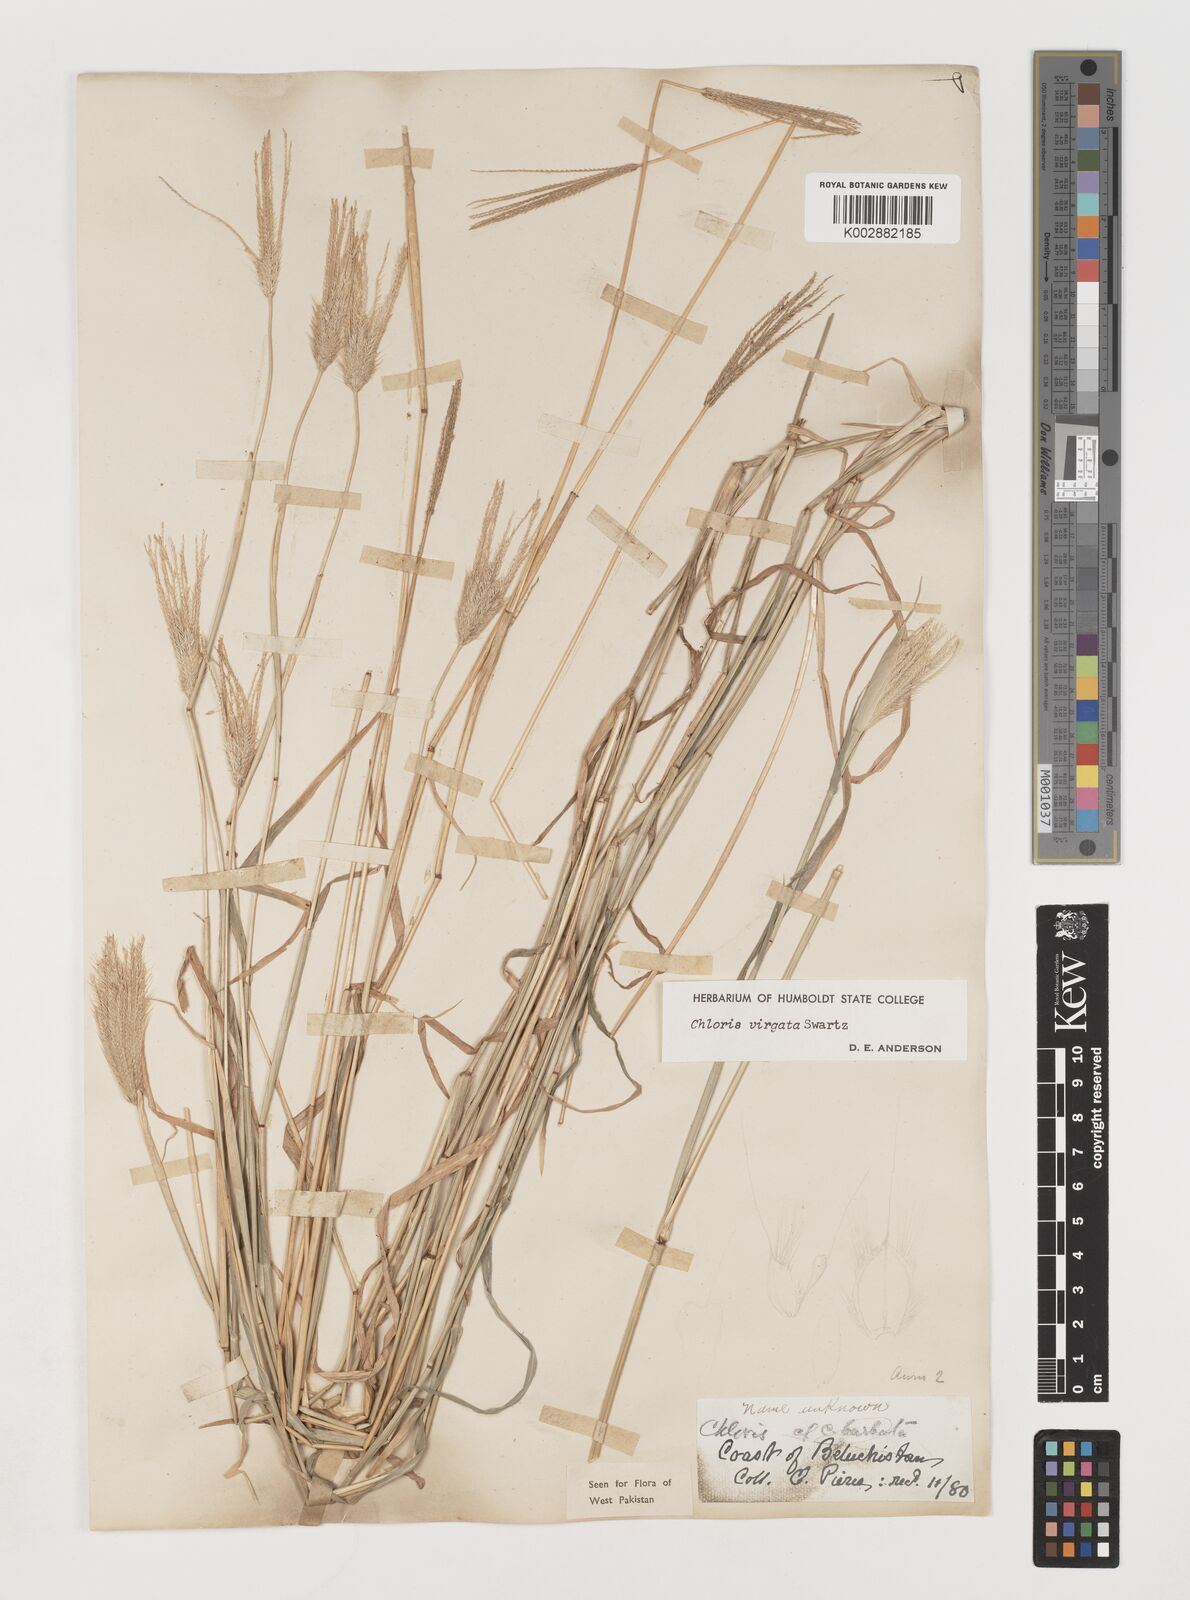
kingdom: Plantae
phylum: Tracheophyta
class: Liliopsida
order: Poales
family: Poaceae
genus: Chloris
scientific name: Chloris virgata
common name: Feathery rhodes-grass
